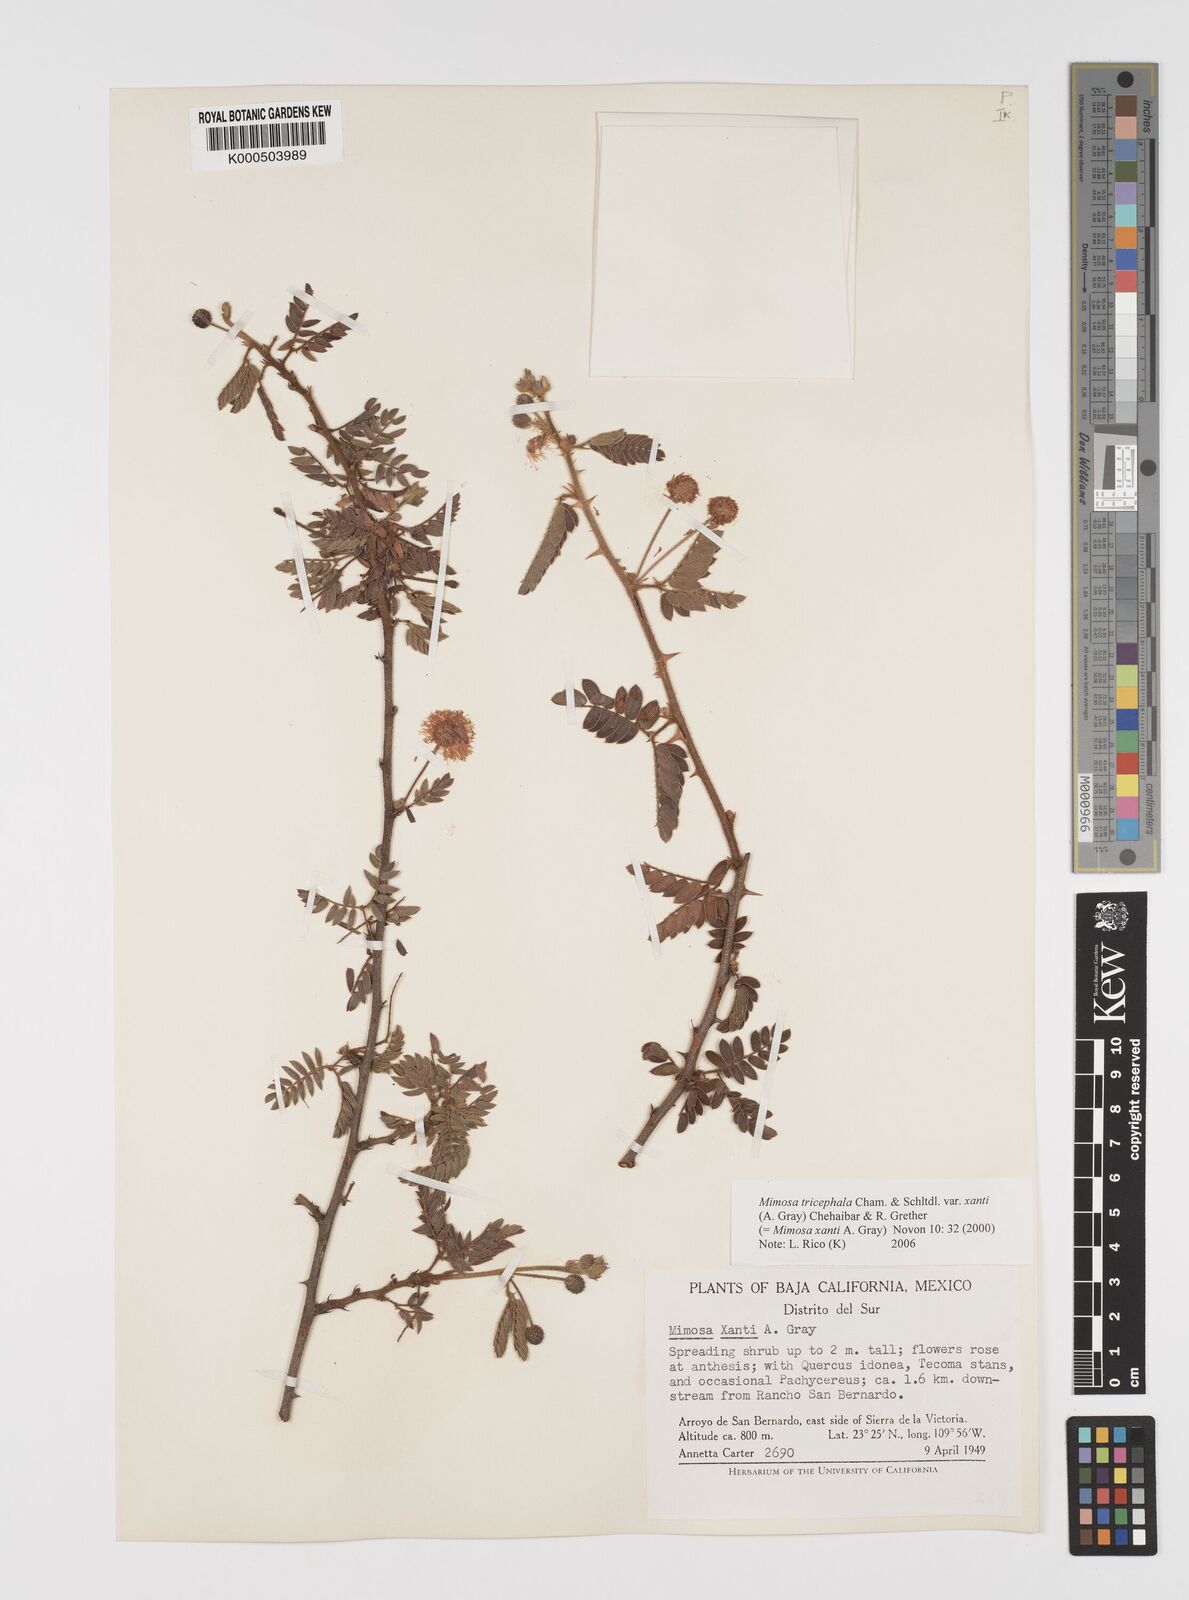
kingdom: Plantae
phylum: Tracheophyta
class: Magnoliopsida
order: Fabales
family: Fabaceae
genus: Mimosa
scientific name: Mimosa tricephala
